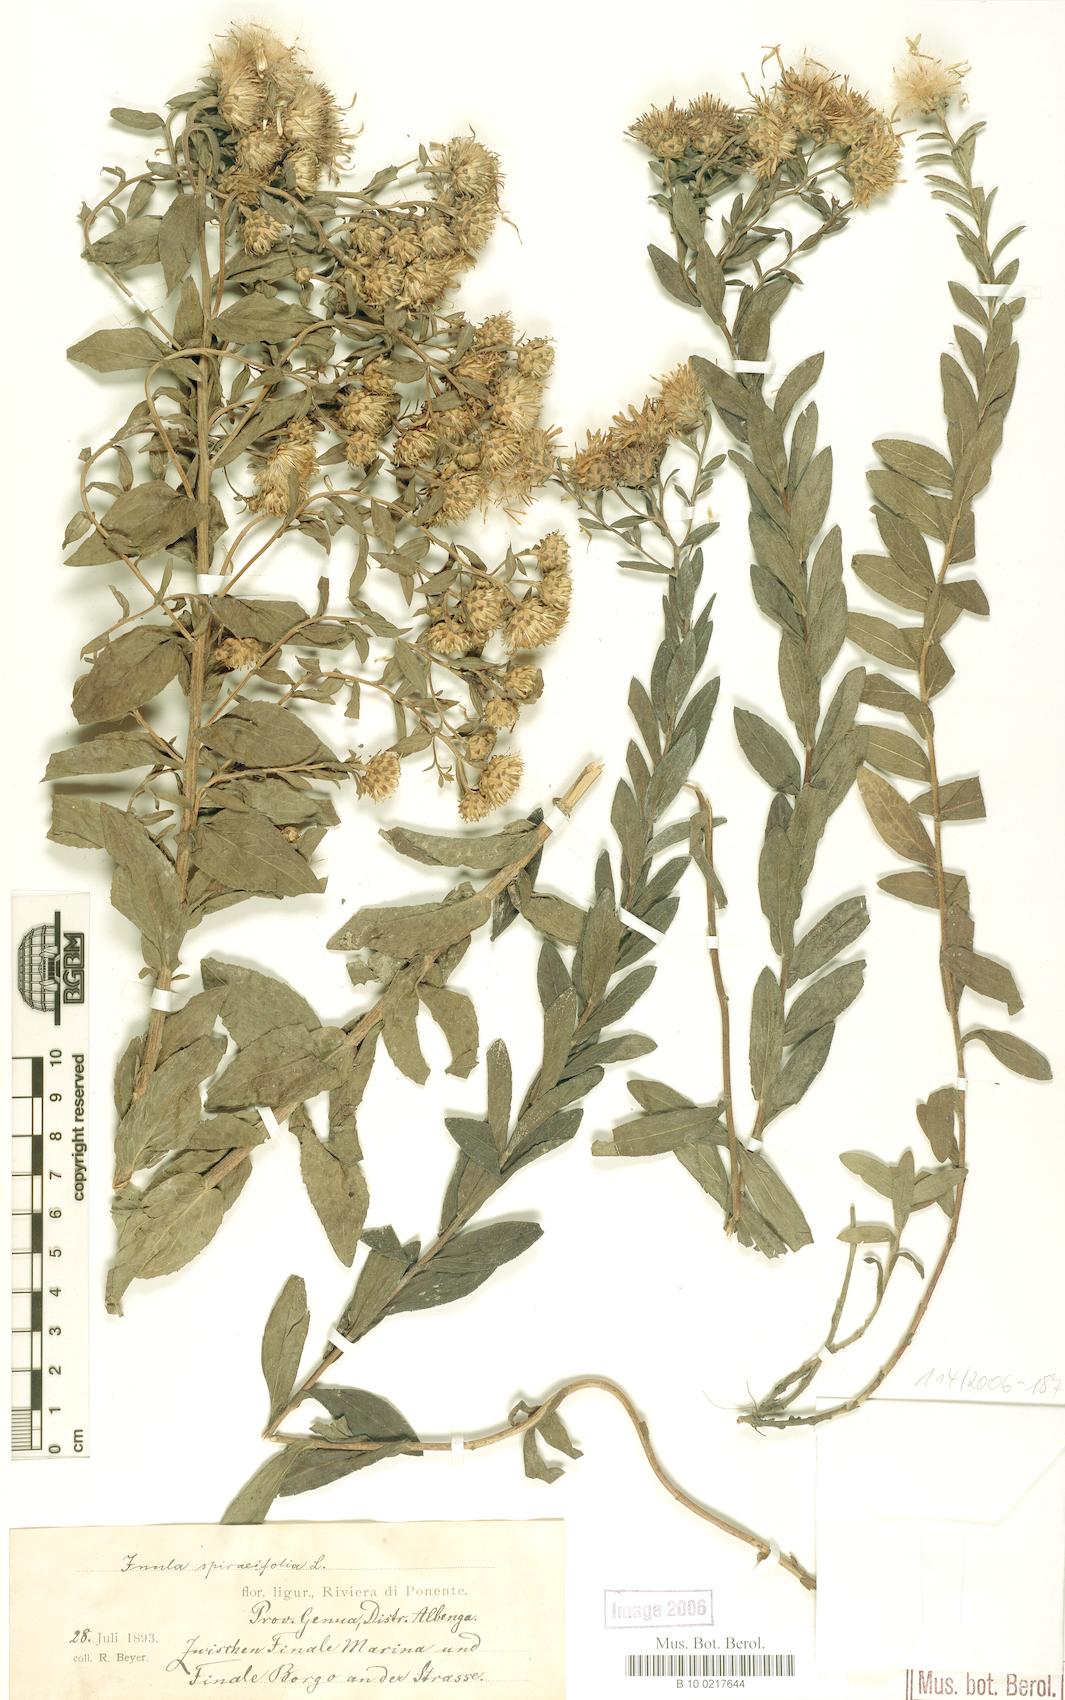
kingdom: Plantae
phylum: Tracheophyta
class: Magnoliopsida
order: Asterales
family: Asteraceae
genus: Pentanema
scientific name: Pentanema spiraeifolium
